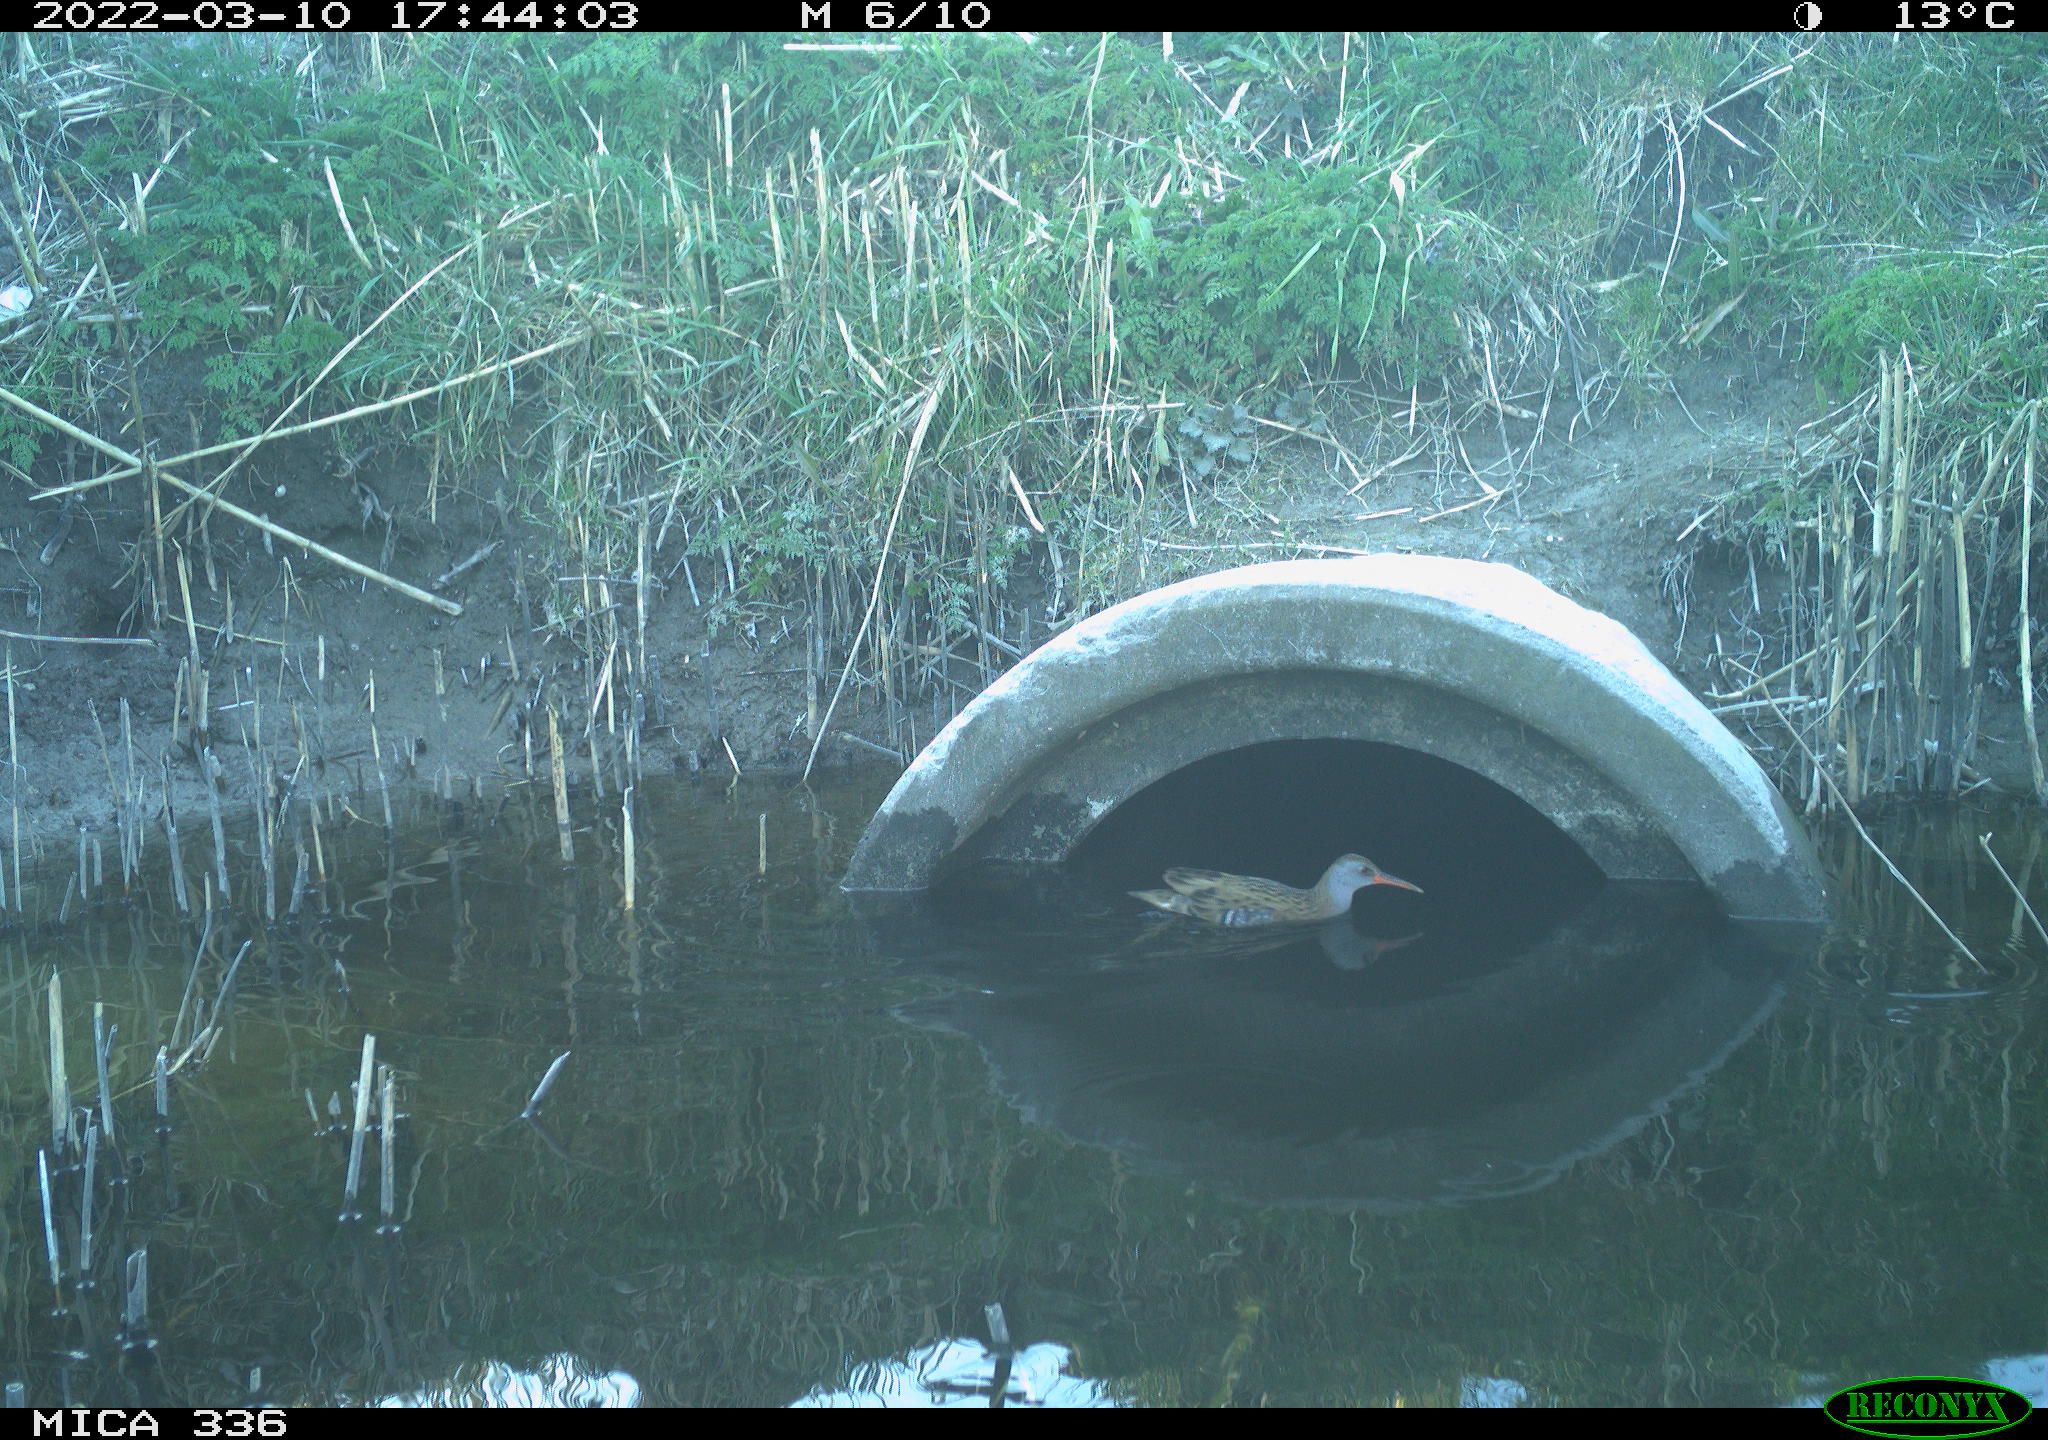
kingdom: Animalia
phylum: Chordata
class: Aves
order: Gruiformes
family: Rallidae
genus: Rallus
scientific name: Rallus aquaticus
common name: Water rail
